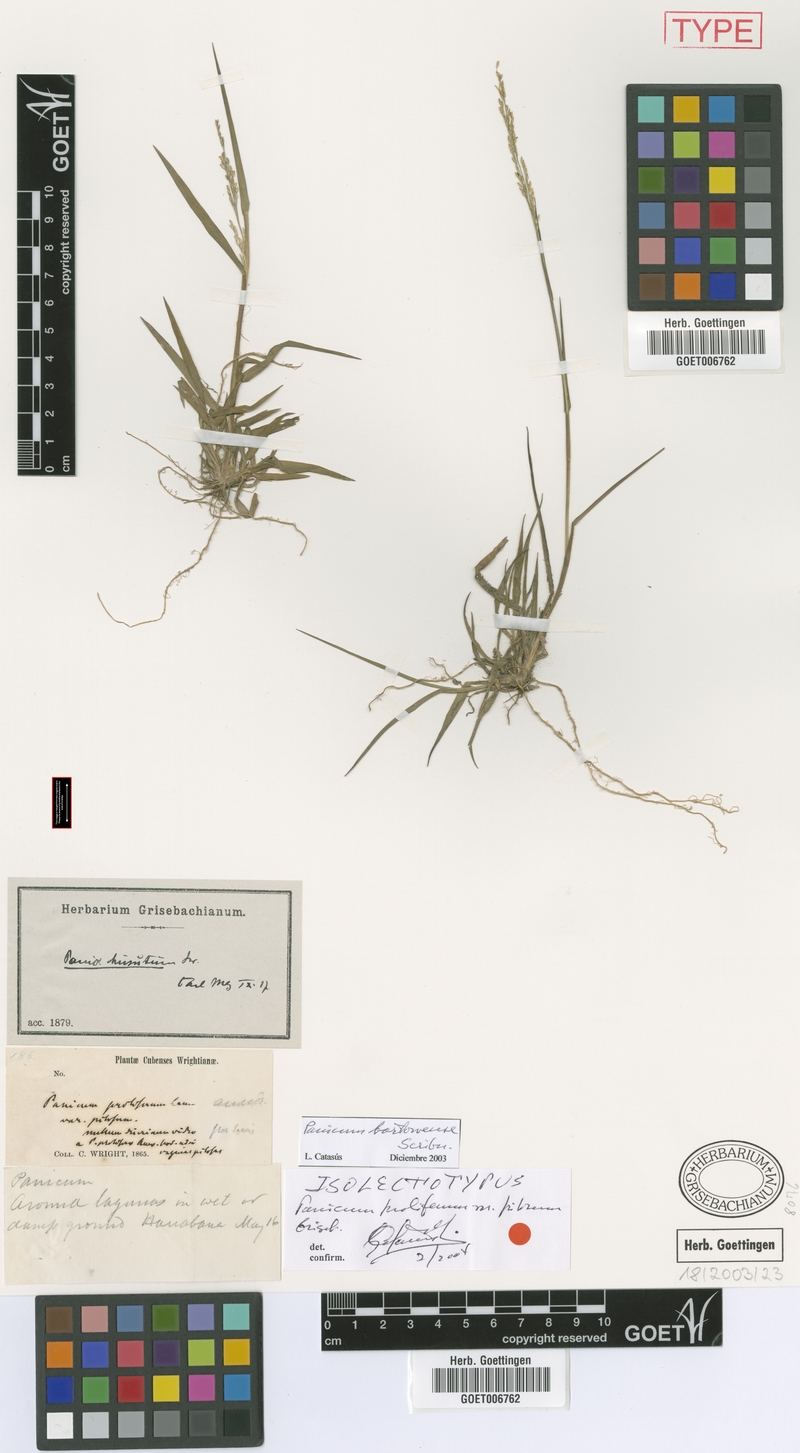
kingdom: Plantae
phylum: Tracheophyta
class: Liliopsida
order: Poales
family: Poaceae
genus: Panicum
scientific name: Panicum bartowense
